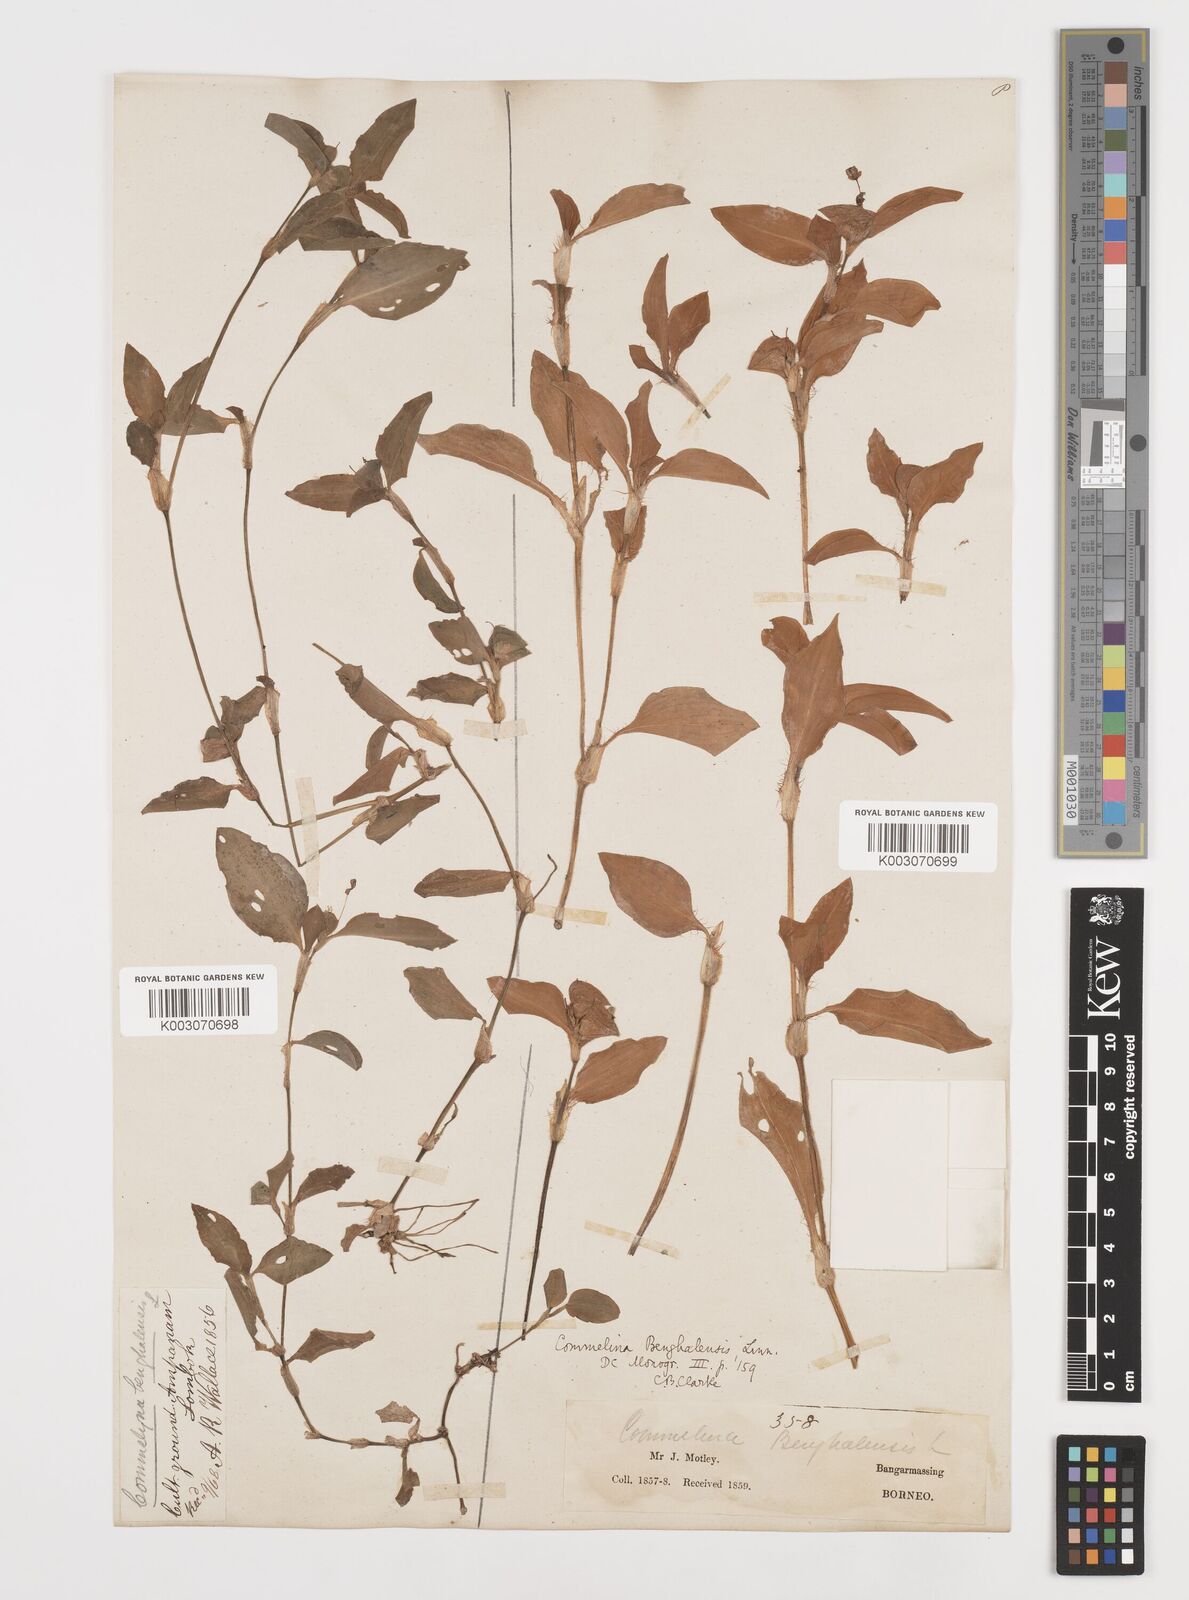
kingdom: Plantae
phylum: Tracheophyta
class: Liliopsida
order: Commelinales
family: Commelinaceae
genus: Commelina
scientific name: Commelina benghalensis
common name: Jio
